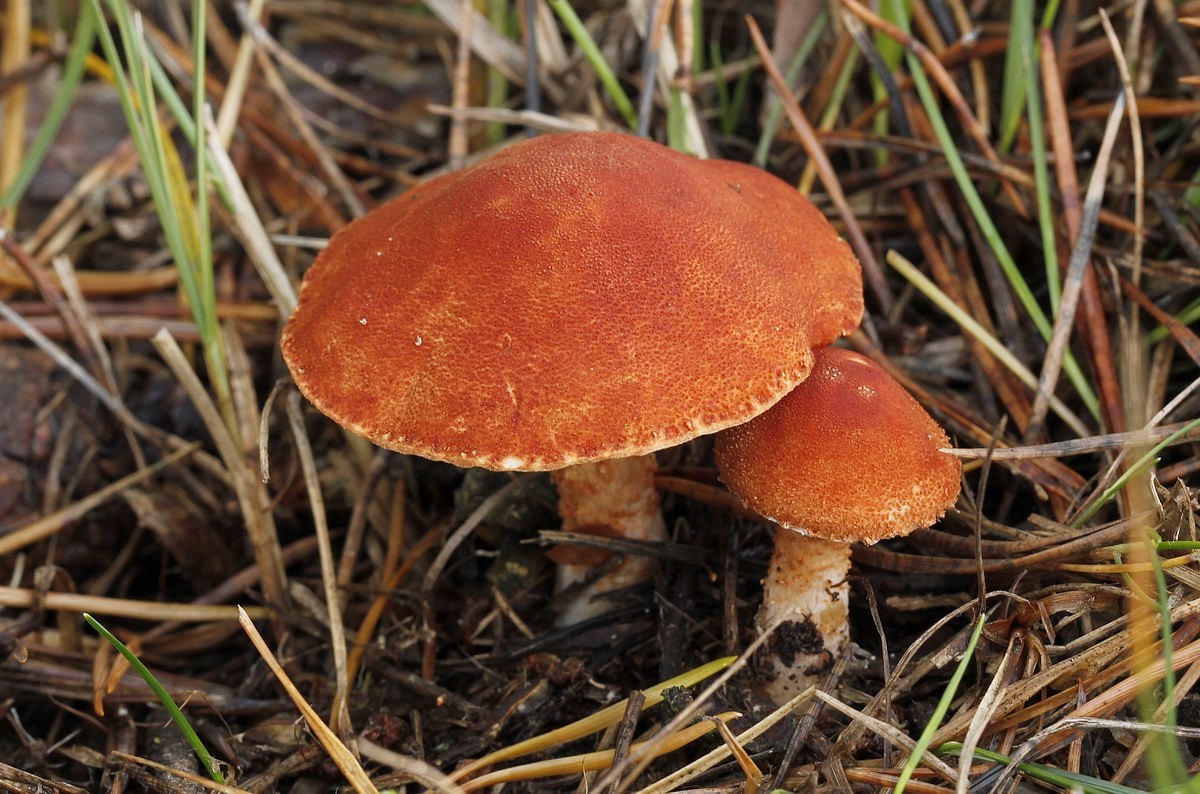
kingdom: Fungi
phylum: Basidiomycota
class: Agaricomycetes
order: Agaricales
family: Agaricaceae
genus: Cystodermella
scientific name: Cystodermella cinnabarina
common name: cinnober-grynhat
